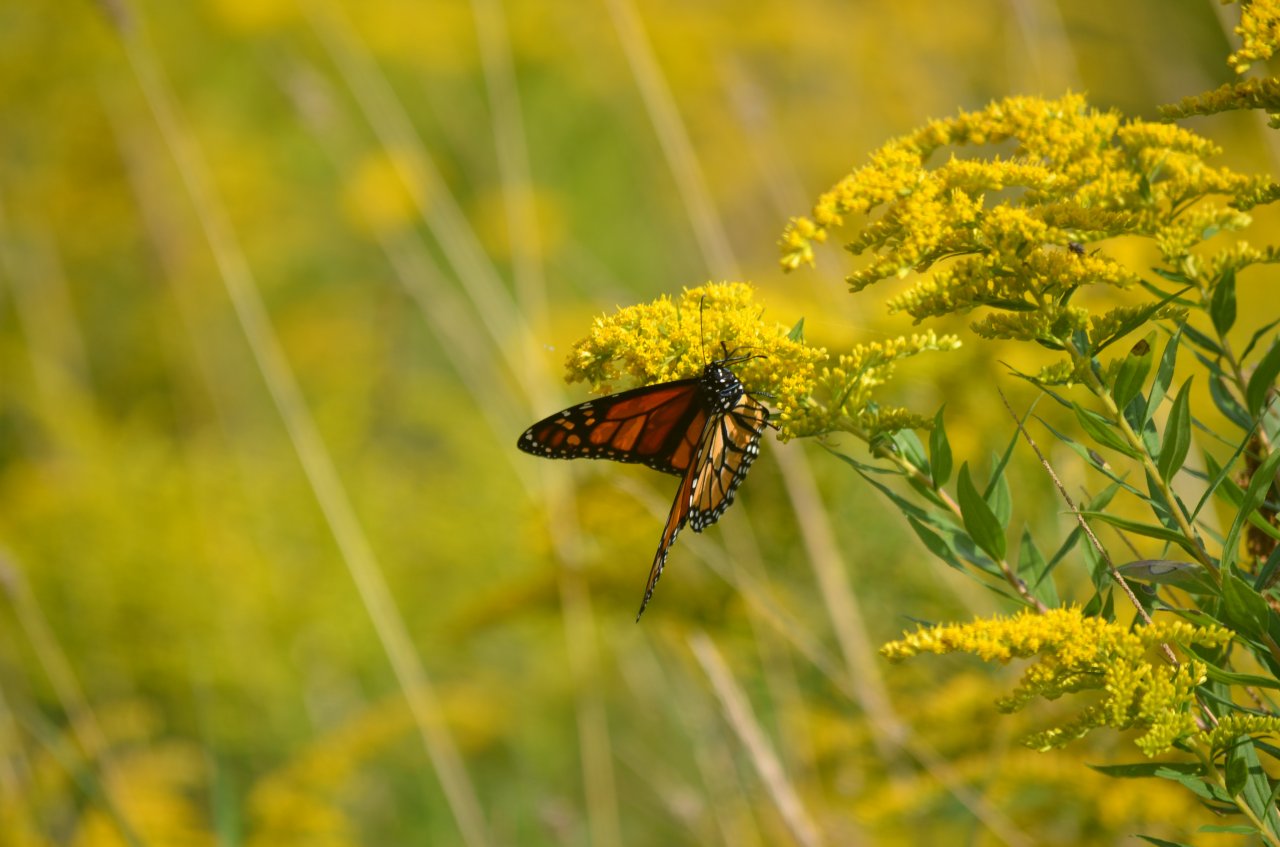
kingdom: Animalia
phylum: Arthropoda
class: Insecta
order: Lepidoptera
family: Nymphalidae
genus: Danaus
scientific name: Danaus plexippus
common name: Monarch
